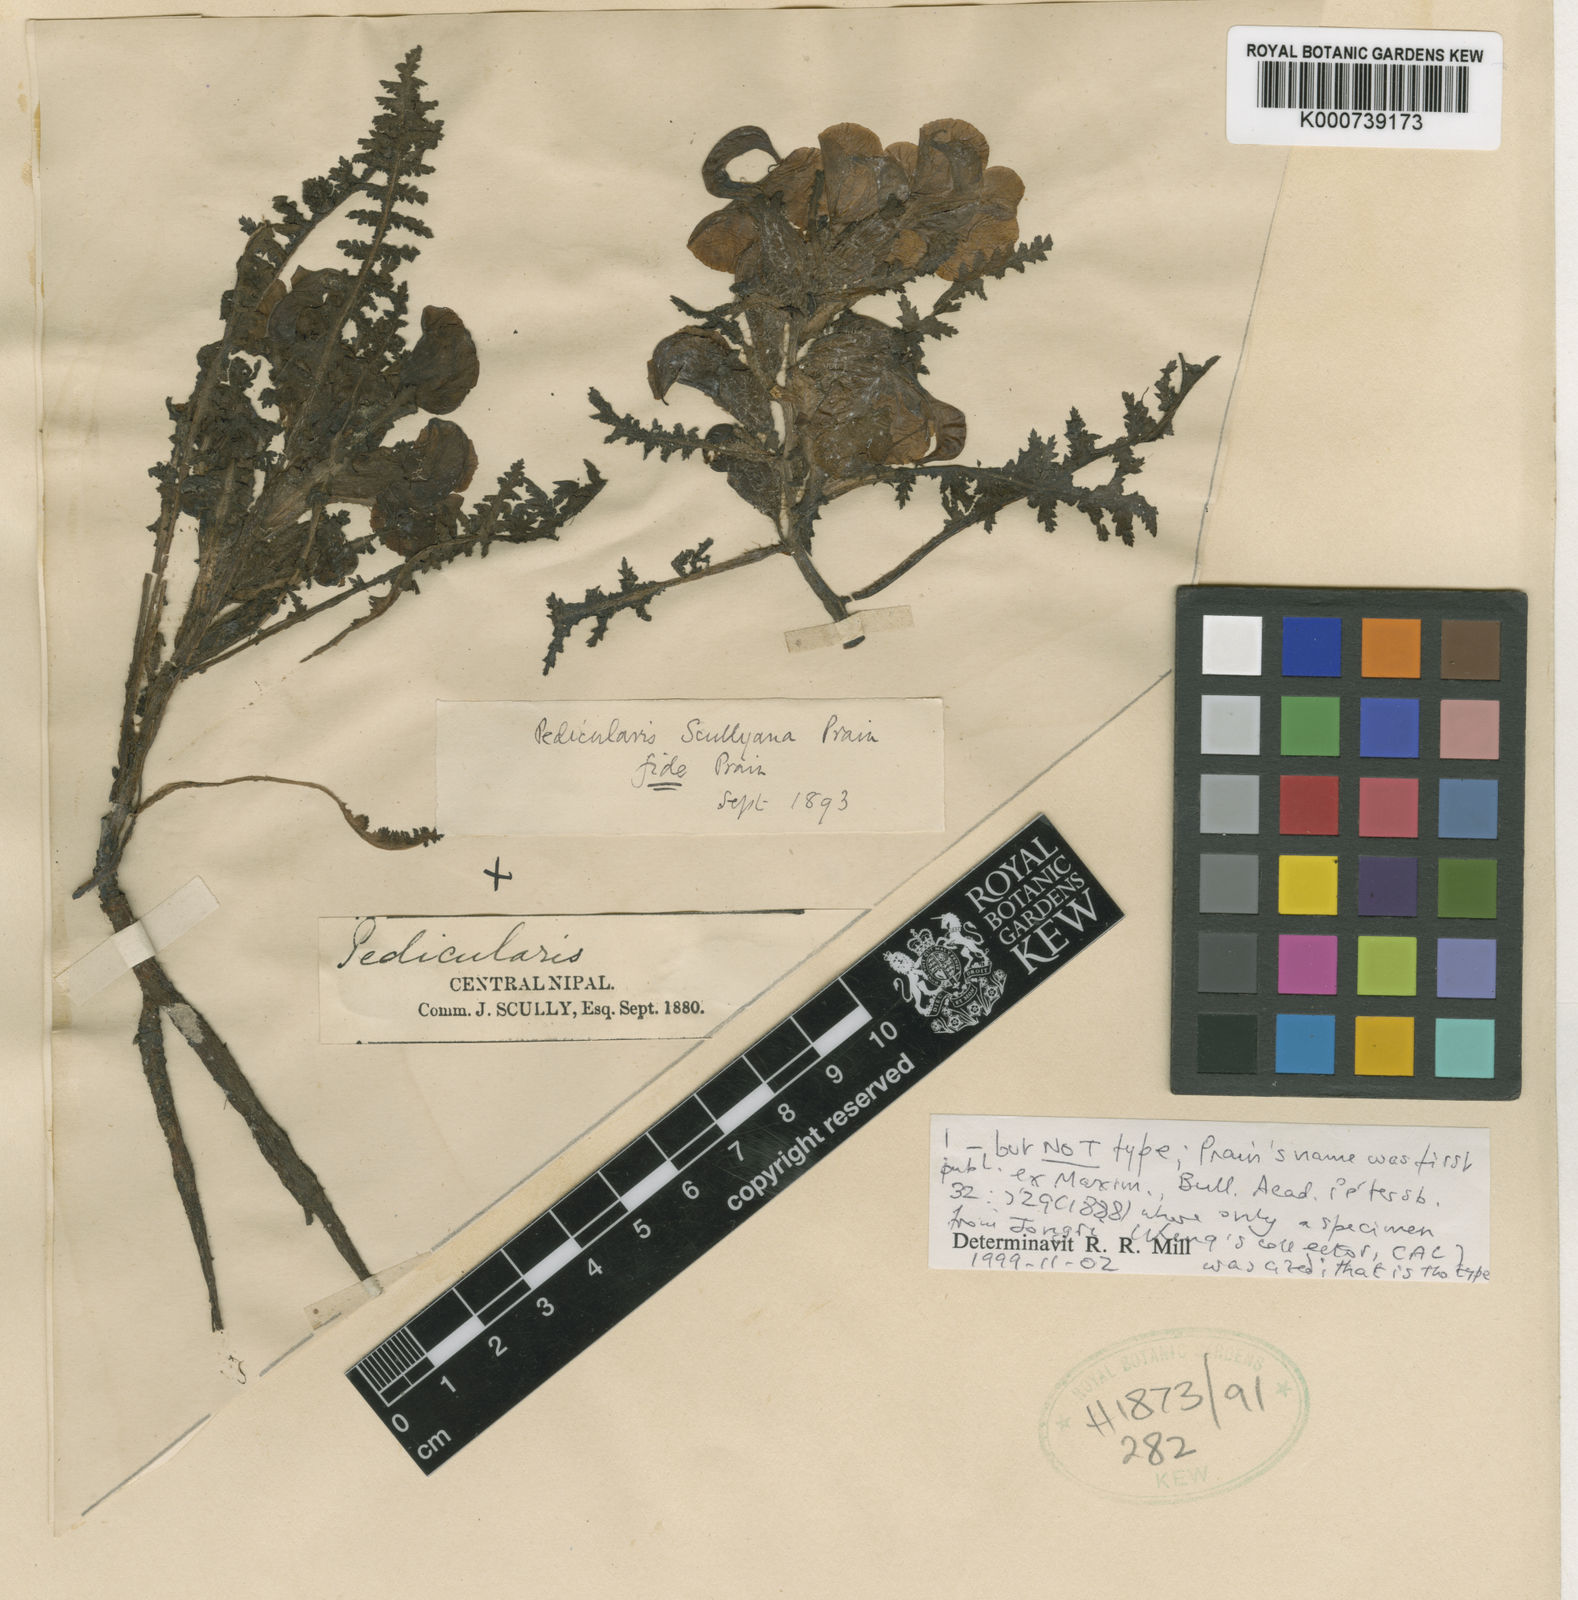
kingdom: Plantae
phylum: Tracheophyta
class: Magnoliopsida
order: Lamiales
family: Orobanchaceae
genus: Pedicularis
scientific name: Pedicularis scullyana
